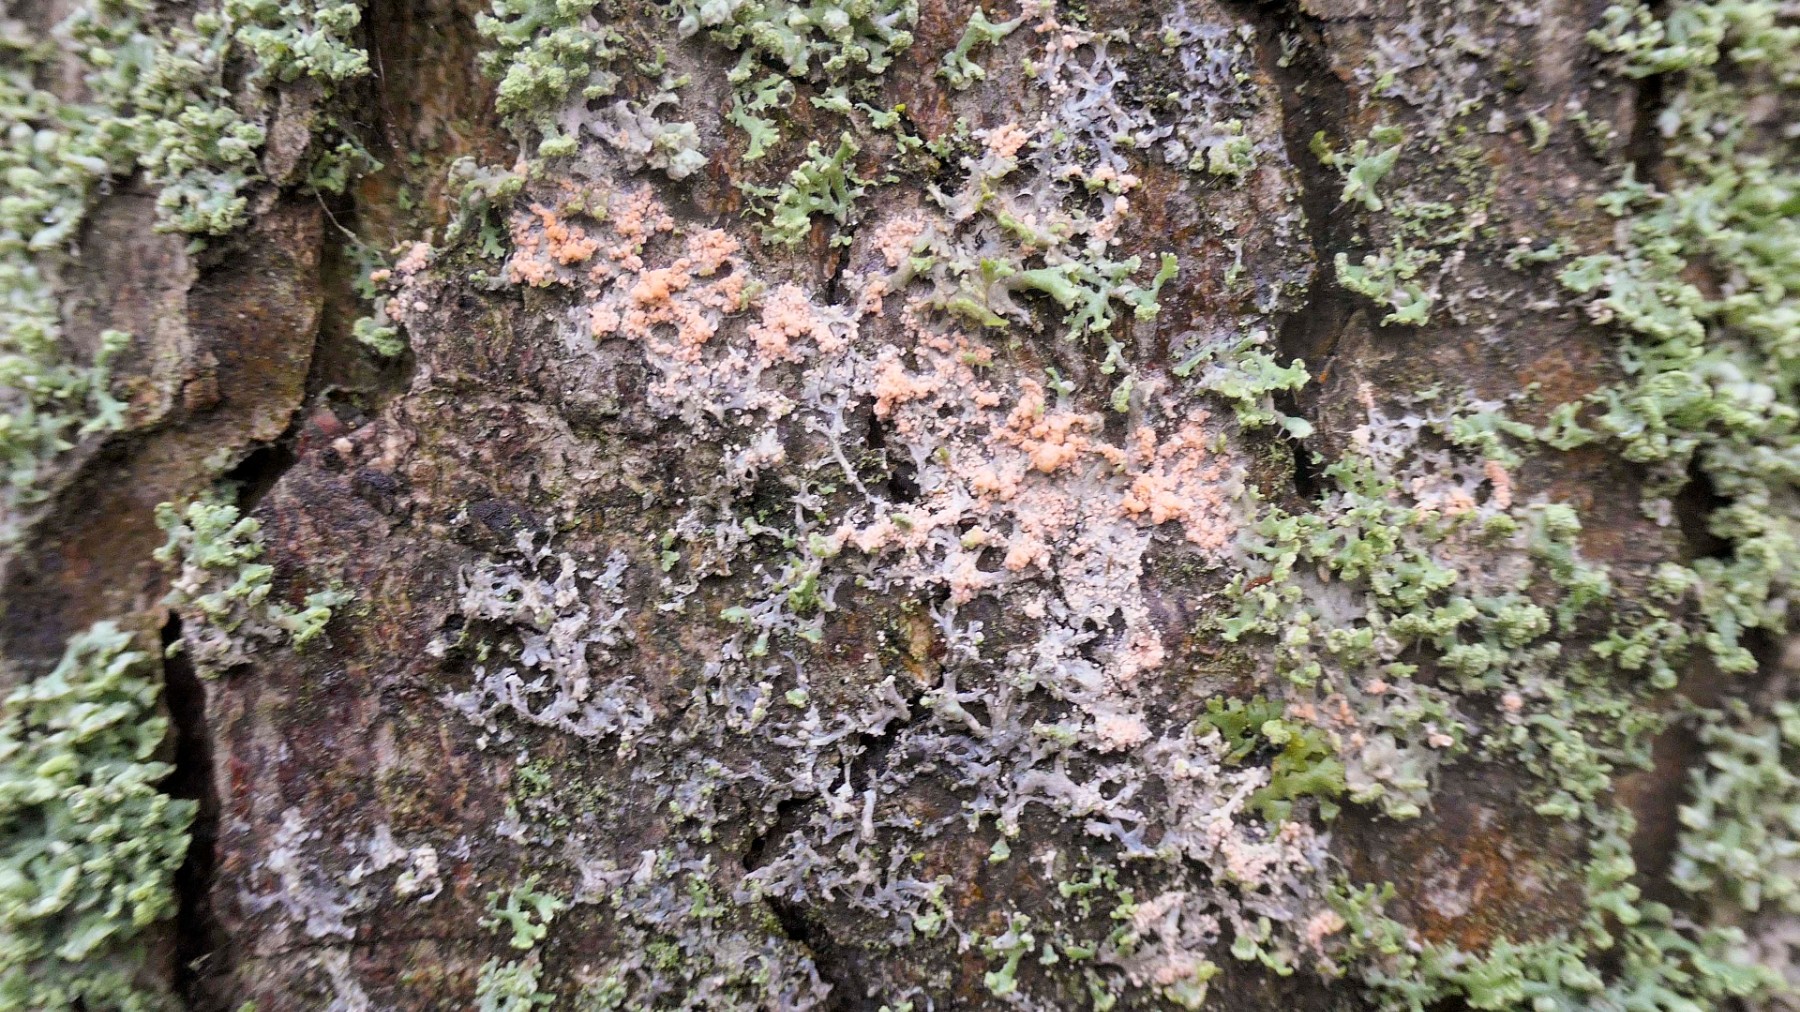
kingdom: Fungi
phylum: Basidiomycota
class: Agaricomycetes
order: Corticiales
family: Corticiaceae
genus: Erythricium
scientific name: Erythricium aurantiacum
